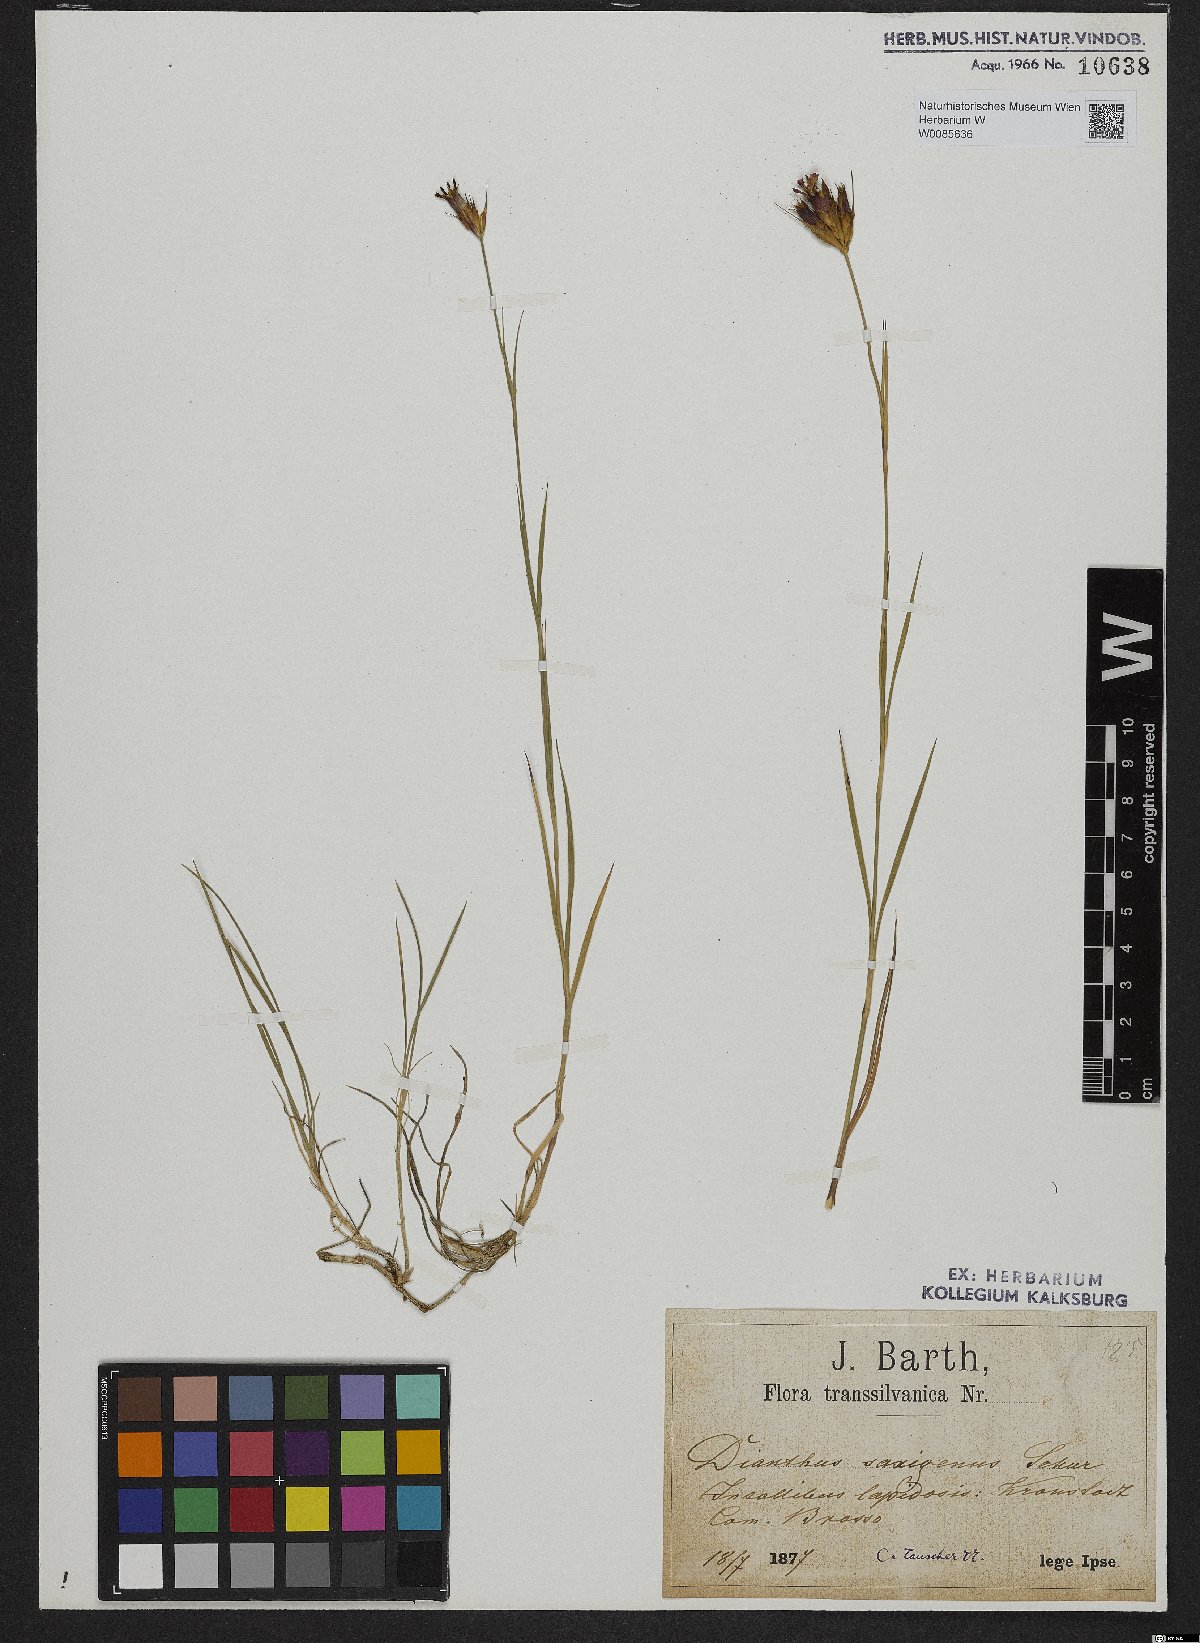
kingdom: Plantae
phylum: Tracheophyta
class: Magnoliopsida
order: Caryophyllales
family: Caryophyllaceae
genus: Dianthus
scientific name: Dianthus
